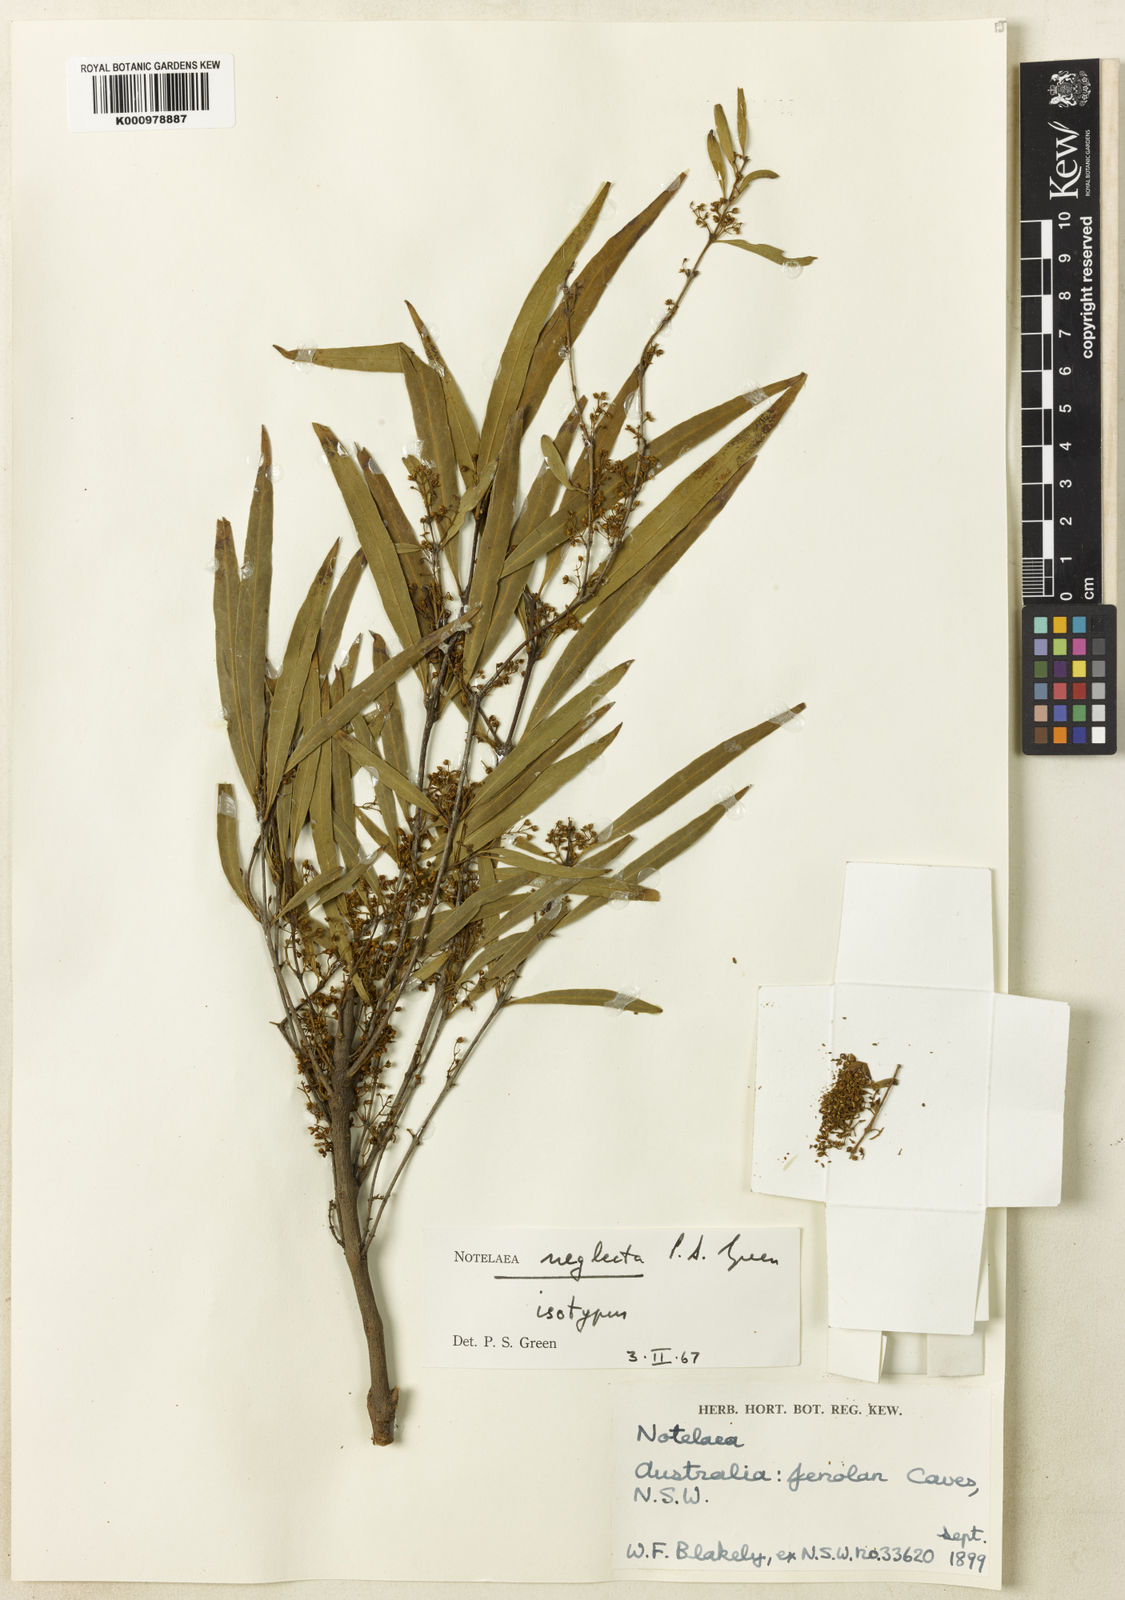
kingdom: Plantae
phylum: Tracheophyta
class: Magnoliopsida
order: Lamiales
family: Oleaceae
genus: Notelaea
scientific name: Notelaea neglecta
